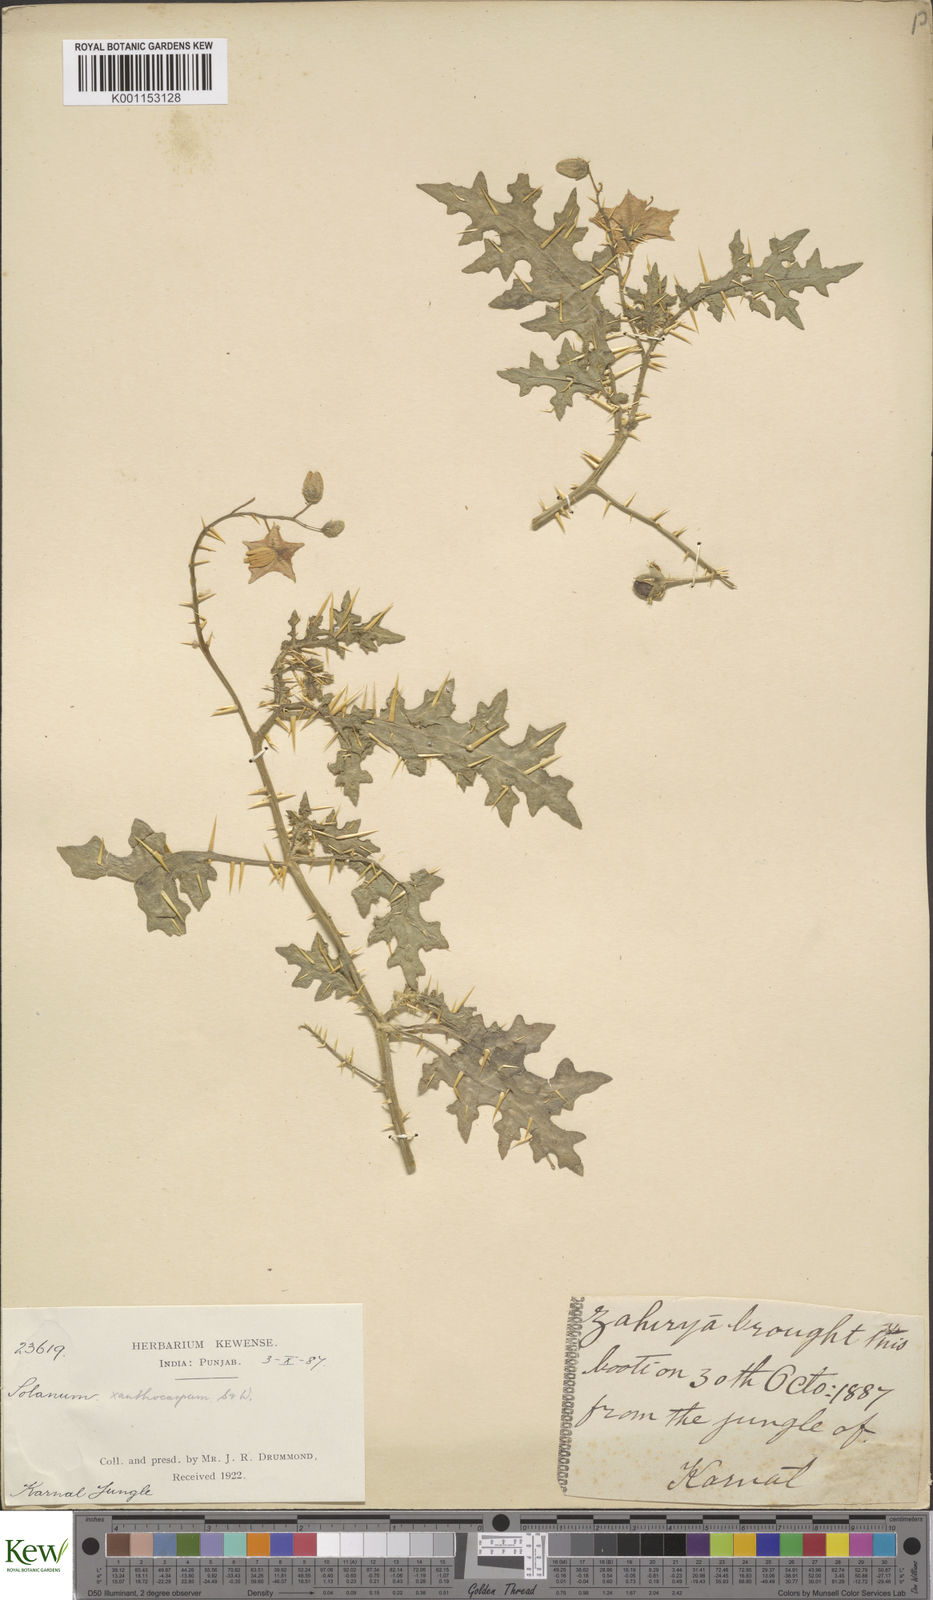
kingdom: Plantae
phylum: Tracheophyta
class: Magnoliopsida
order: Solanales
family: Solanaceae
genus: Solanum
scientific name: Solanum virginianum
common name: Surattense nightshade
